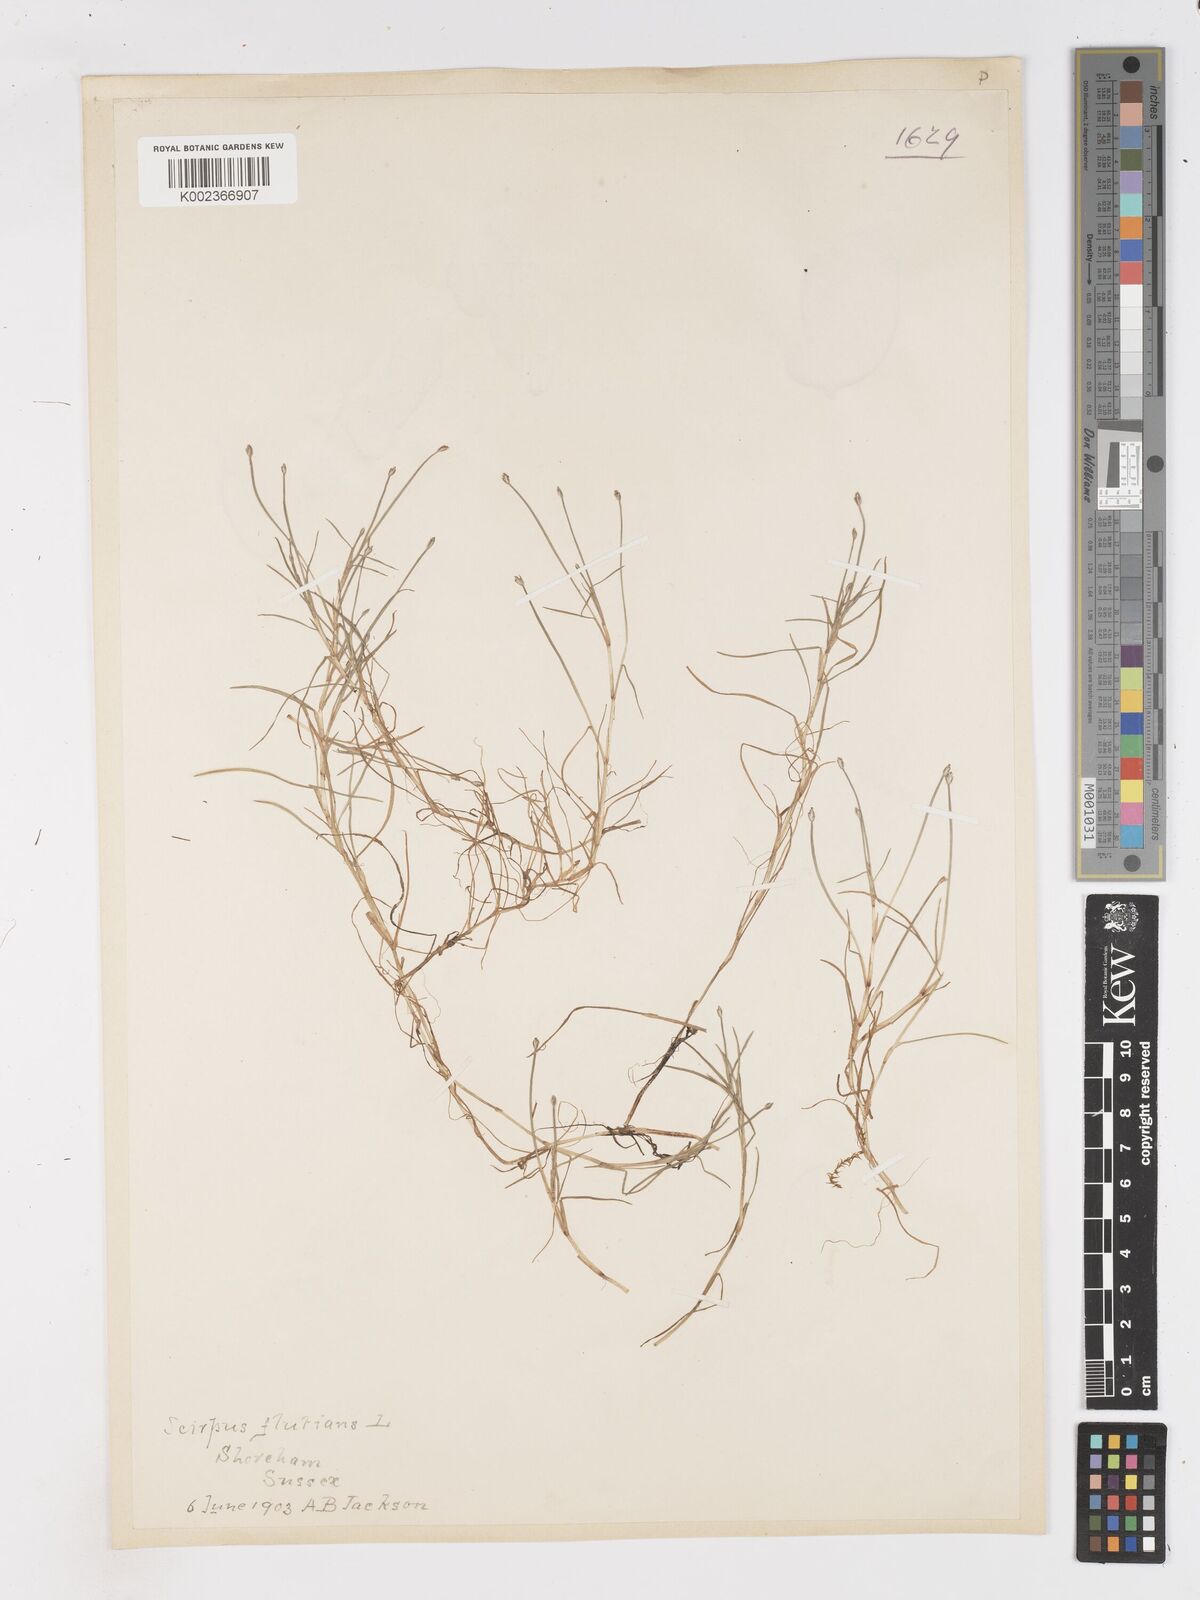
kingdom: Plantae
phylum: Tracheophyta
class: Liliopsida
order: Poales
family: Cyperaceae
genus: Isolepis
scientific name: Isolepis fluitans
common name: Floating club-rush
